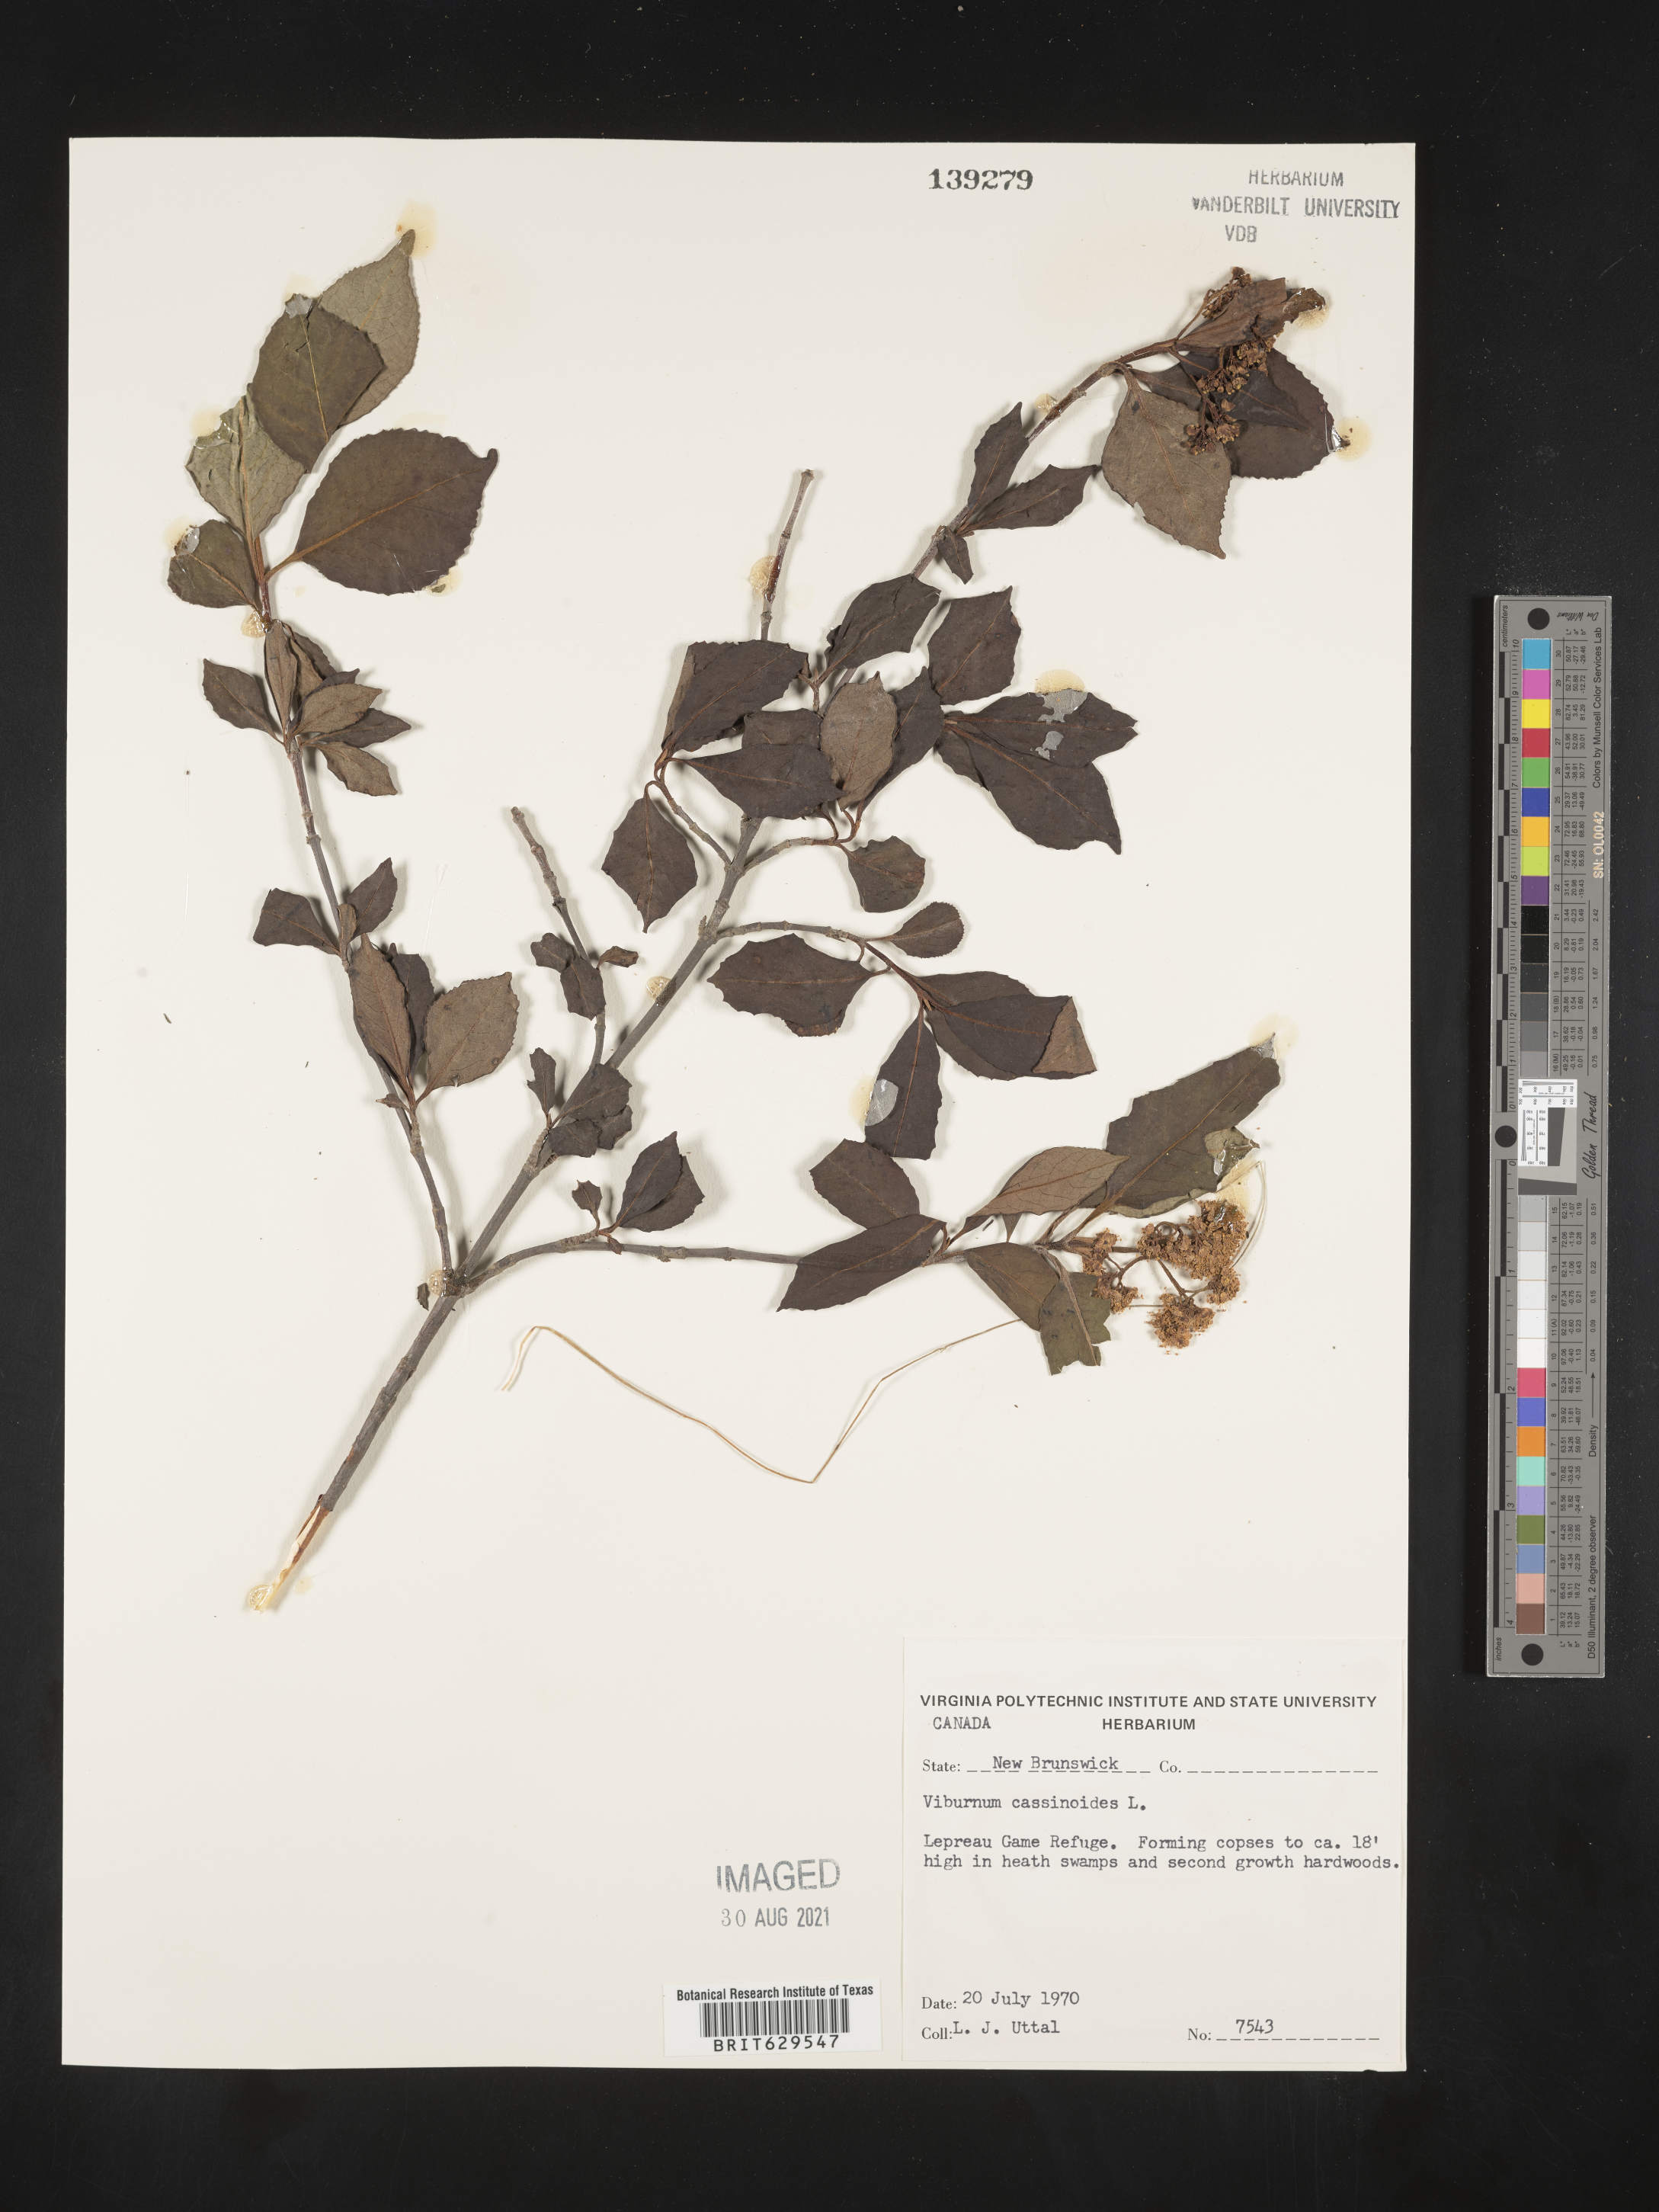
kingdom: Plantae
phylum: Tracheophyta
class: Magnoliopsida
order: Dipsacales
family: Viburnaceae
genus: Viburnum
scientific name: Viburnum cassinoides
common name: Swamp haw
